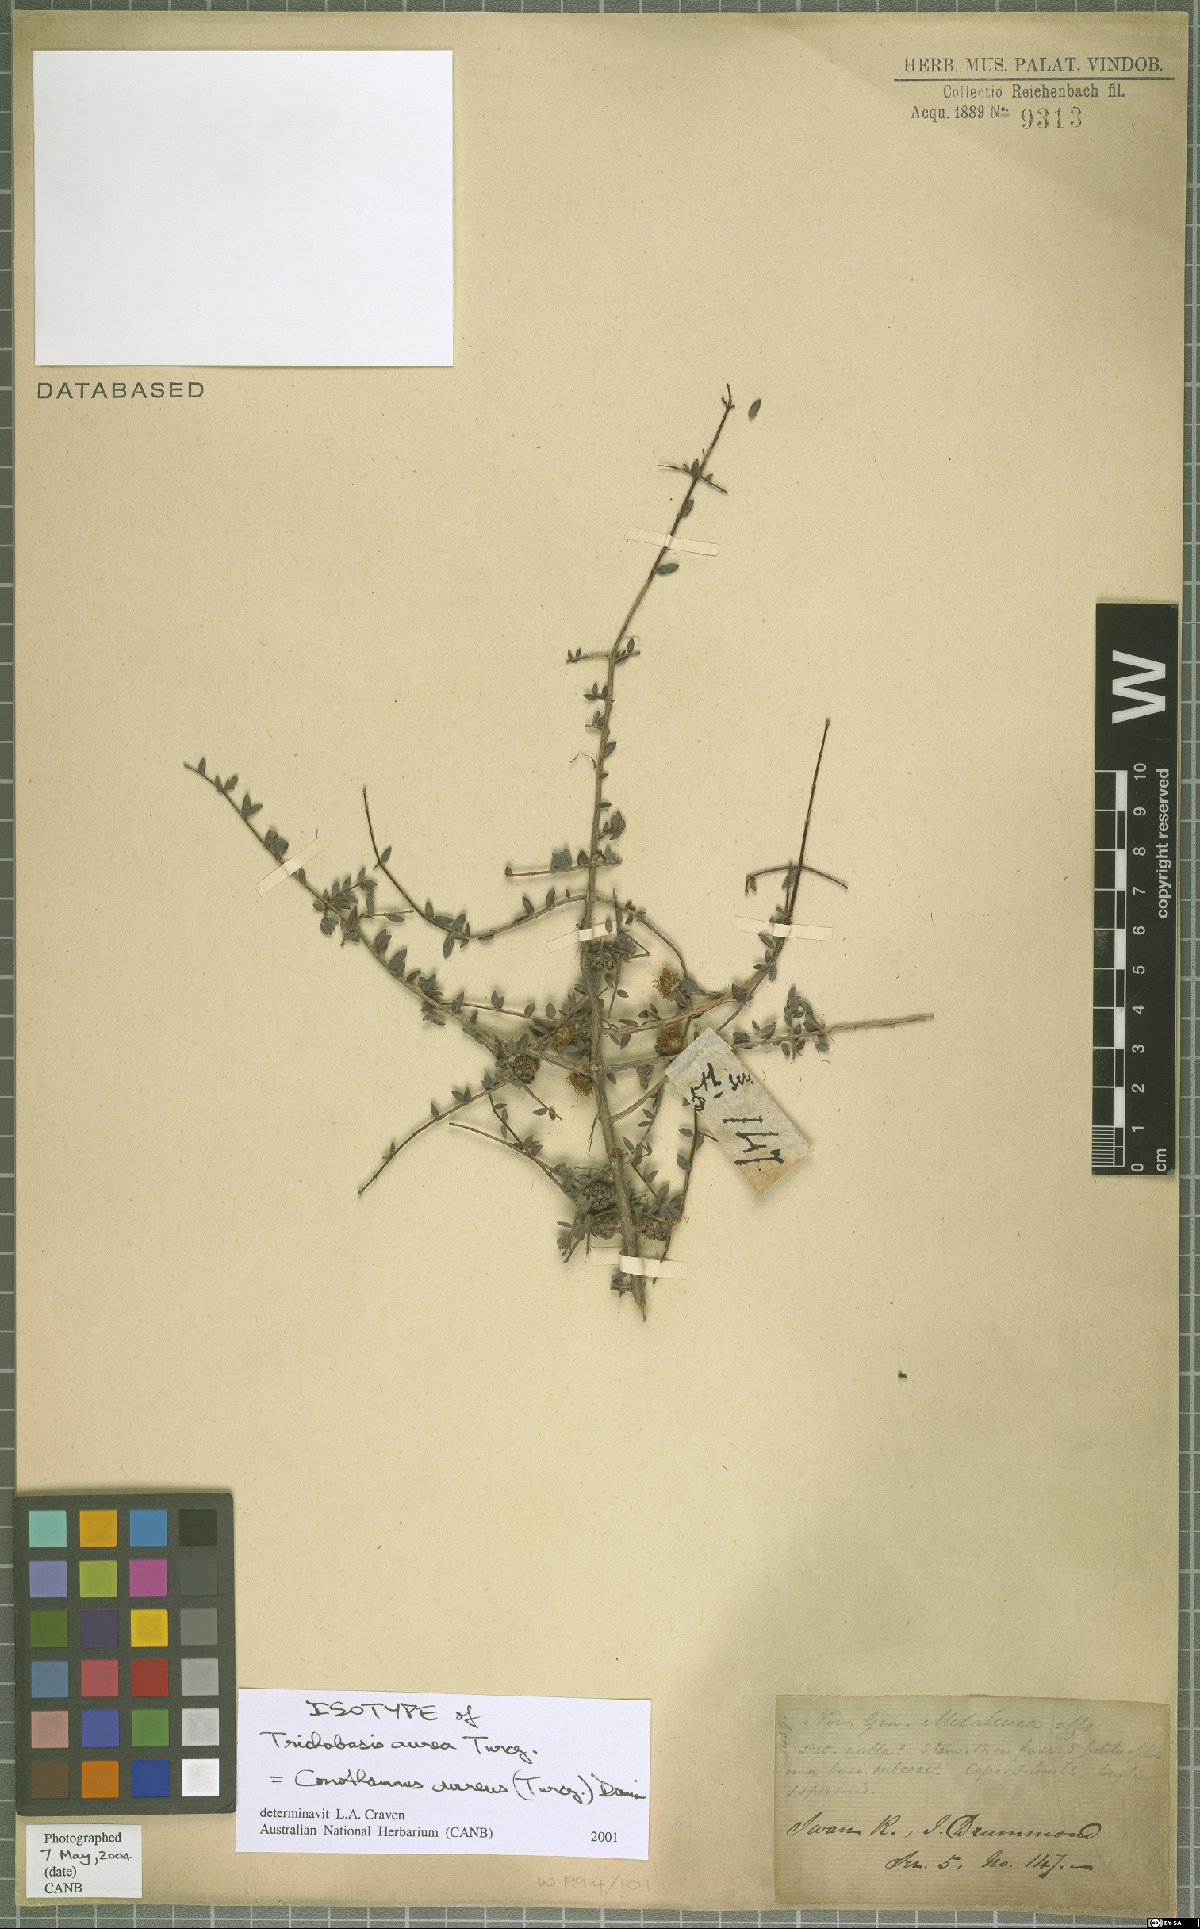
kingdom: Plantae
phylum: Tracheophyta
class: Magnoliopsida
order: Myrtales
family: Myrtaceae
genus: Melaleuca
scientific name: Melaleuca aurea
